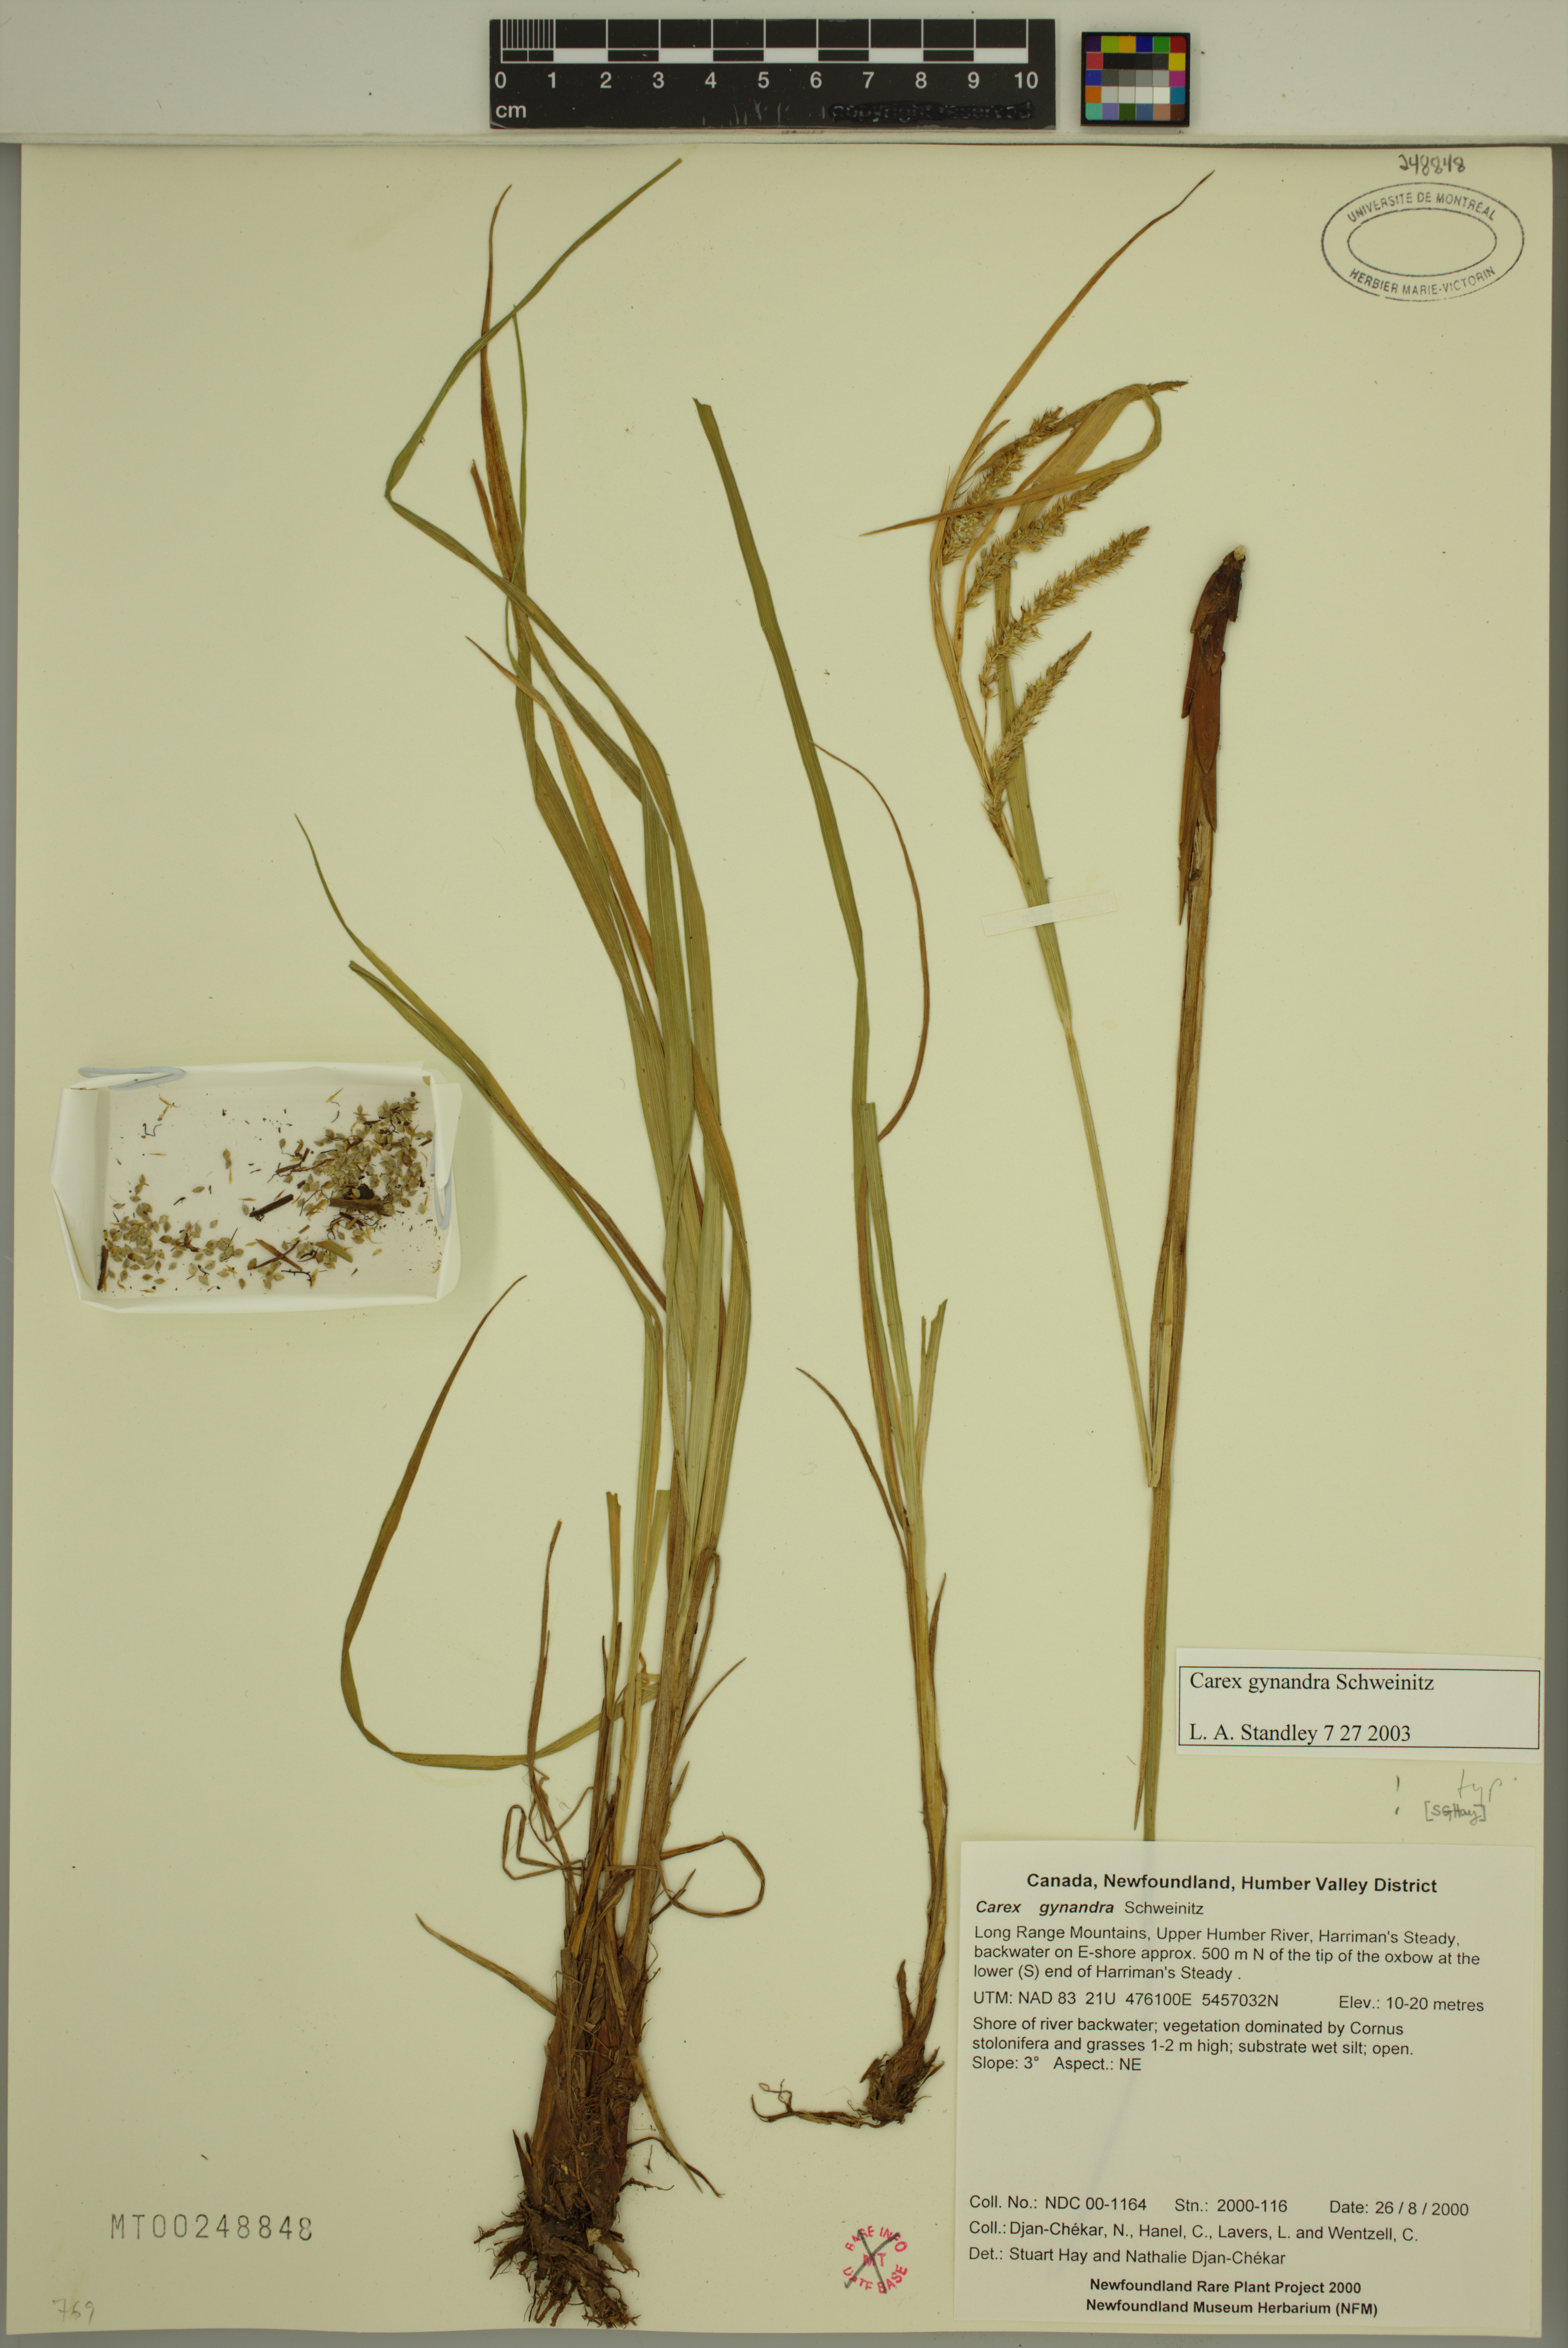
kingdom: Plantae
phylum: Tracheophyta
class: Liliopsida
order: Poales
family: Cyperaceae
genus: Carex
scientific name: Carex gynandra
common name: Nodding sedge
